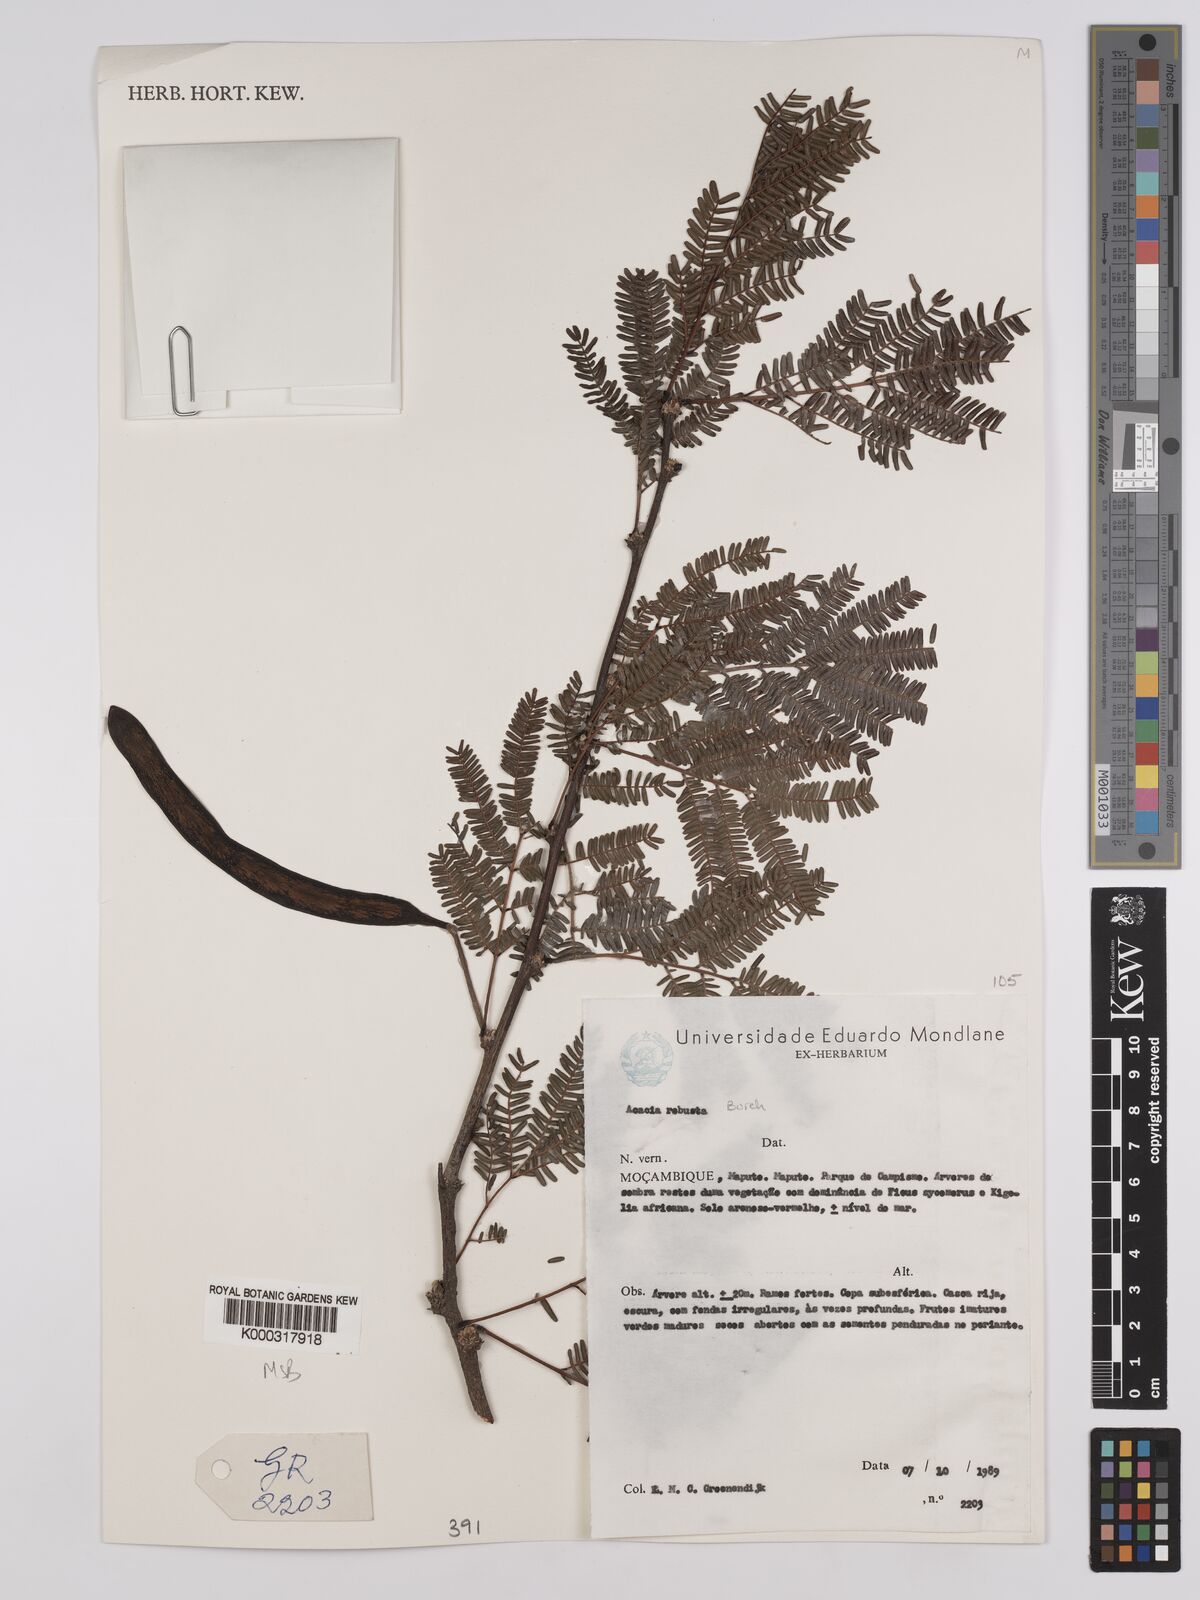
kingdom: Plantae
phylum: Tracheophyta
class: Magnoliopsida
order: Fabales
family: Fabaceae
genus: Vachellia
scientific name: Vachellia robusta
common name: Ankle thorn
